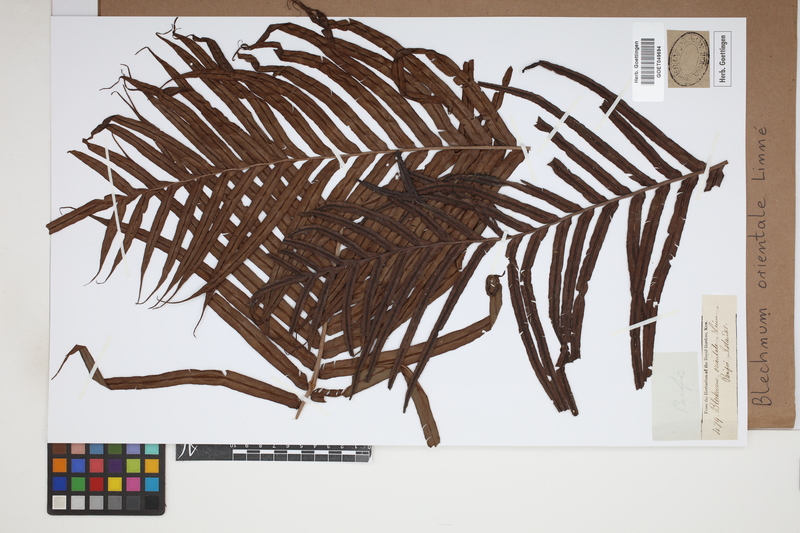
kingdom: Plantae
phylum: Tracheophyta
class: Polypodiopsida
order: Polypodiales
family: Blechnaceae
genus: Blechnopsis
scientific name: Blechnopsis orientalis
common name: Oriental blechnum
